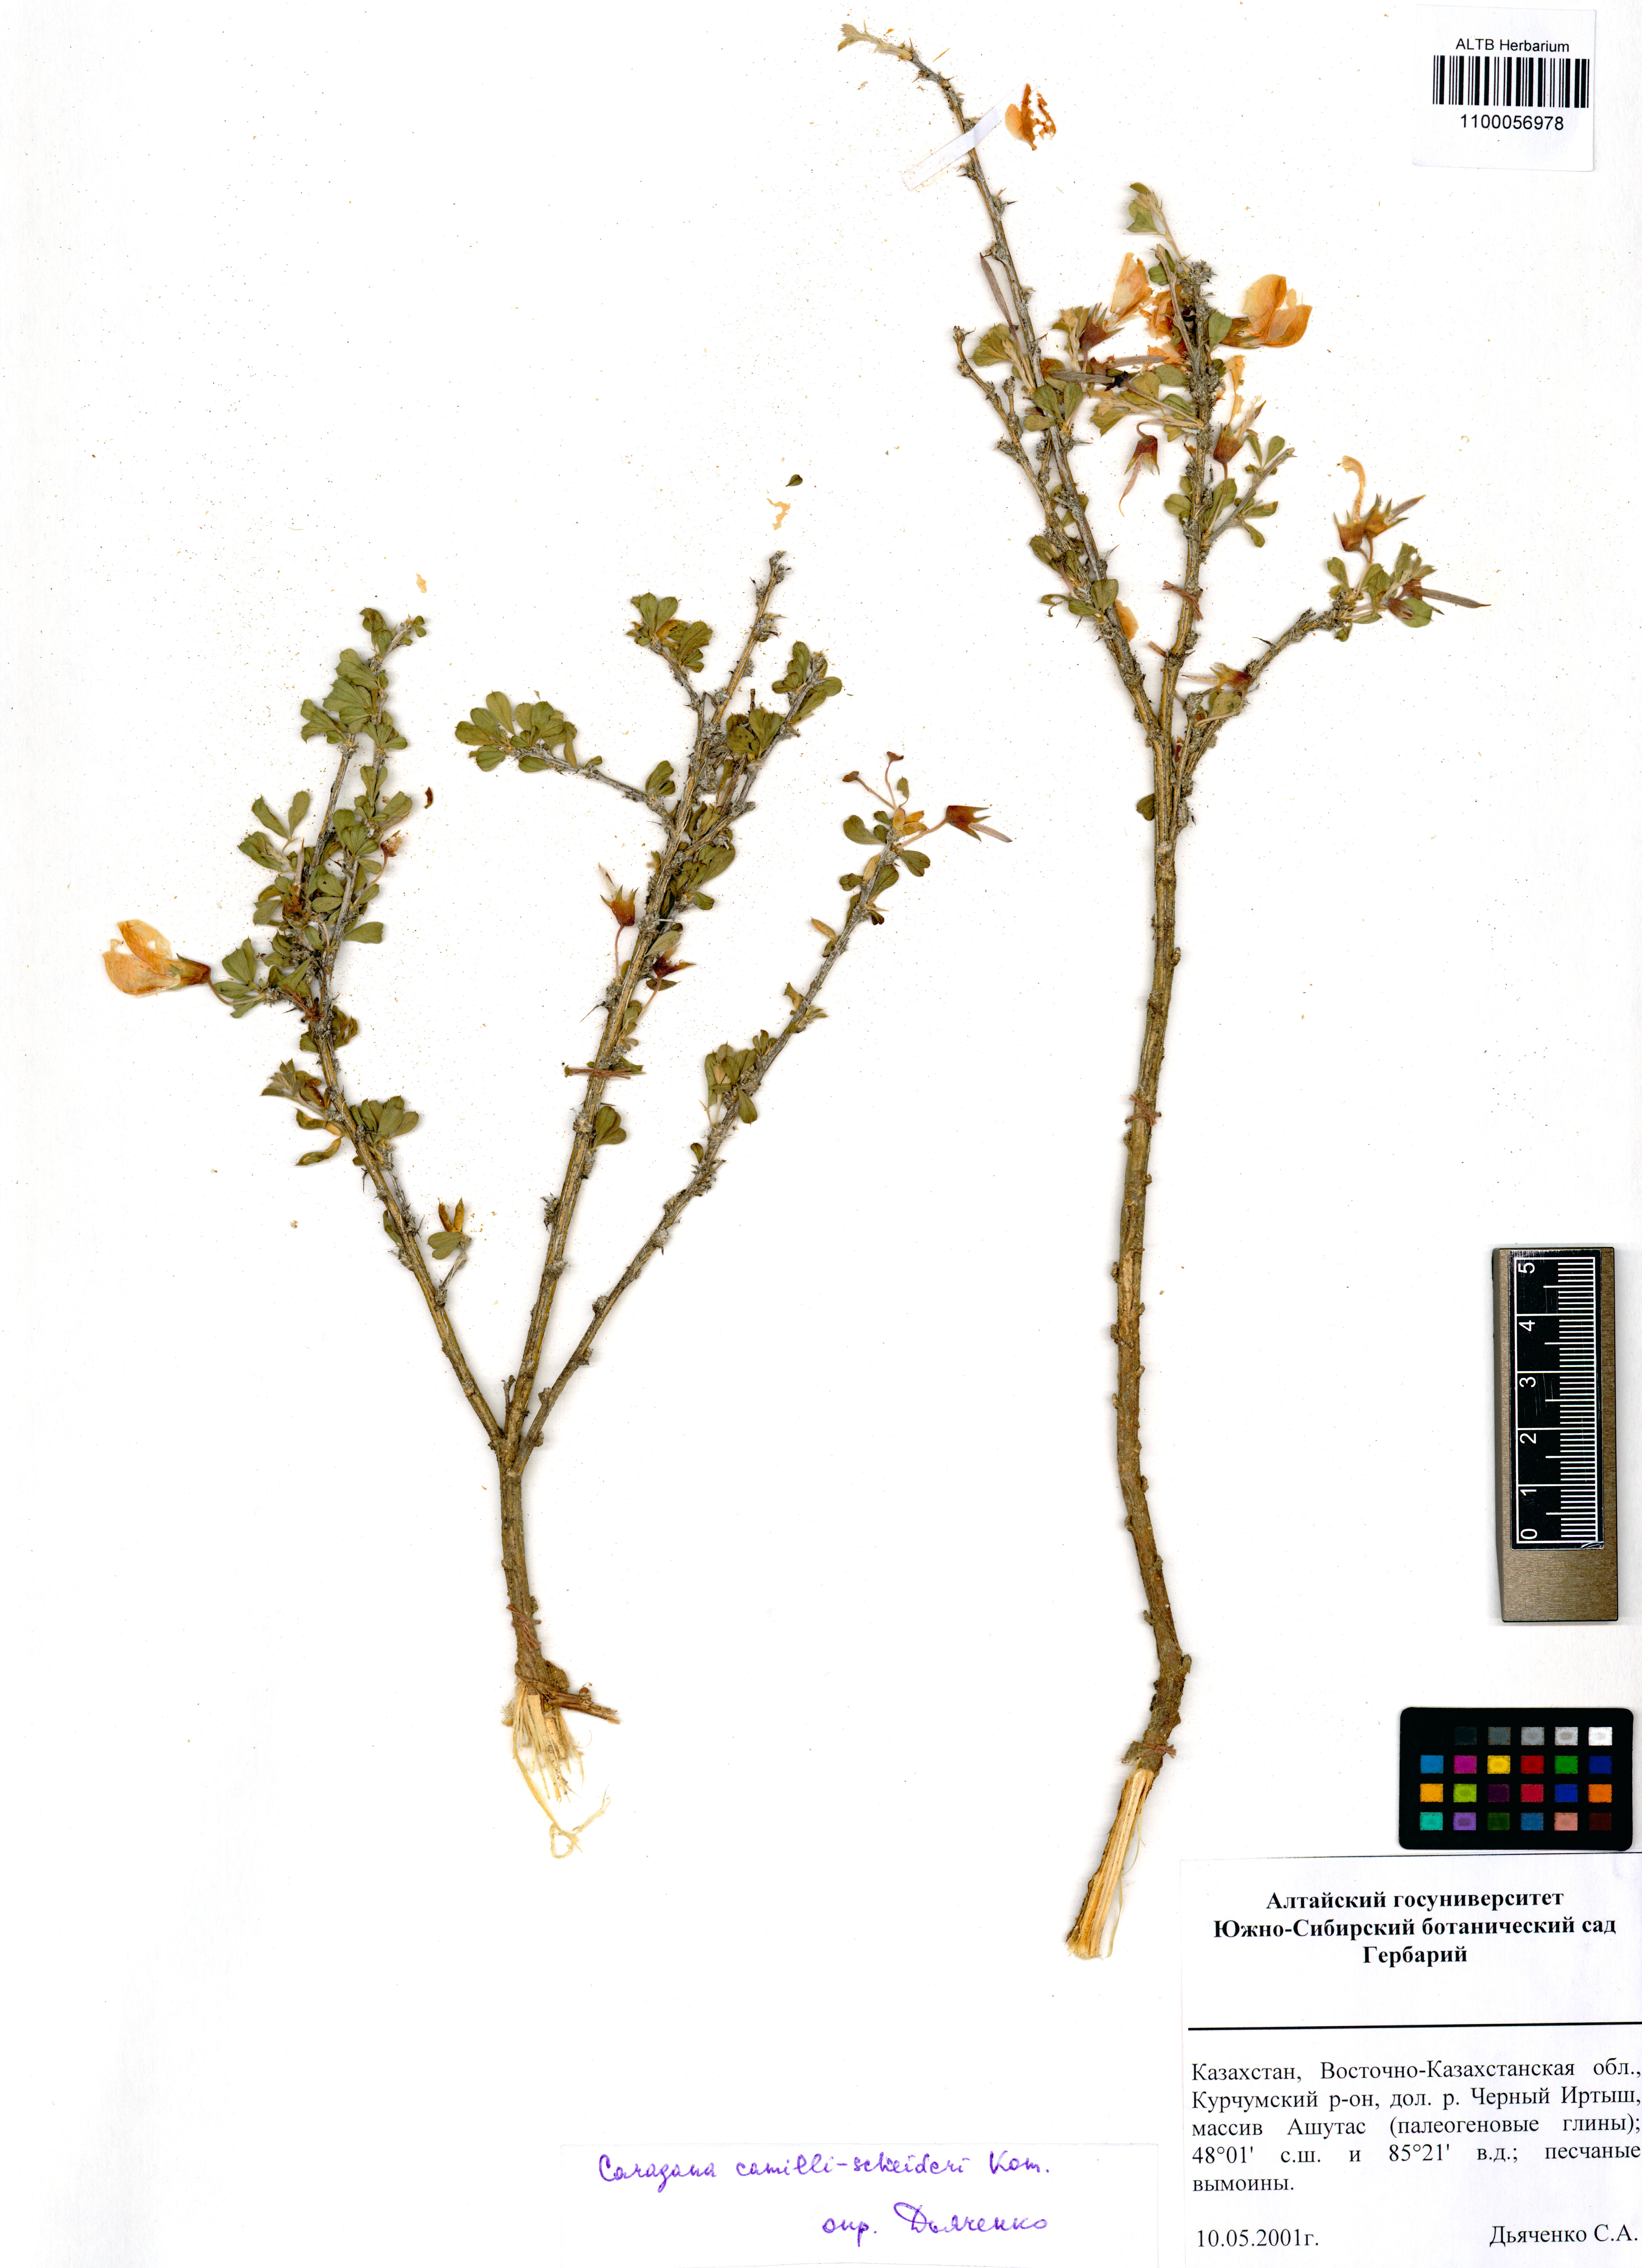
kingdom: Plantae
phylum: Tracheophyta
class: Magnoliopsida
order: Fabales
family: Fabaceae
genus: Caragana
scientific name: Caragana camilli-schneideri
